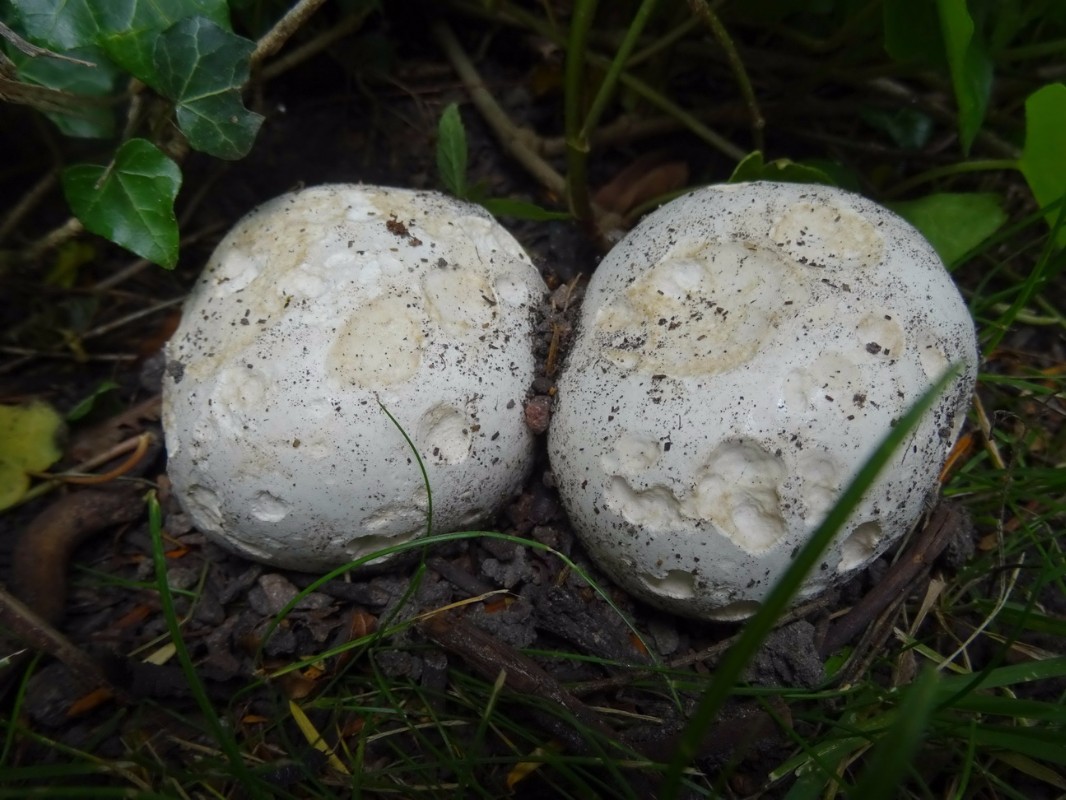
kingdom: Fungi
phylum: Basidiomycota
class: Agaricomycetes
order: Agaricales
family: Lycoperdaceae
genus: Calvatia
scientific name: Calvatia gigantea
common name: kæmpestøvbold
